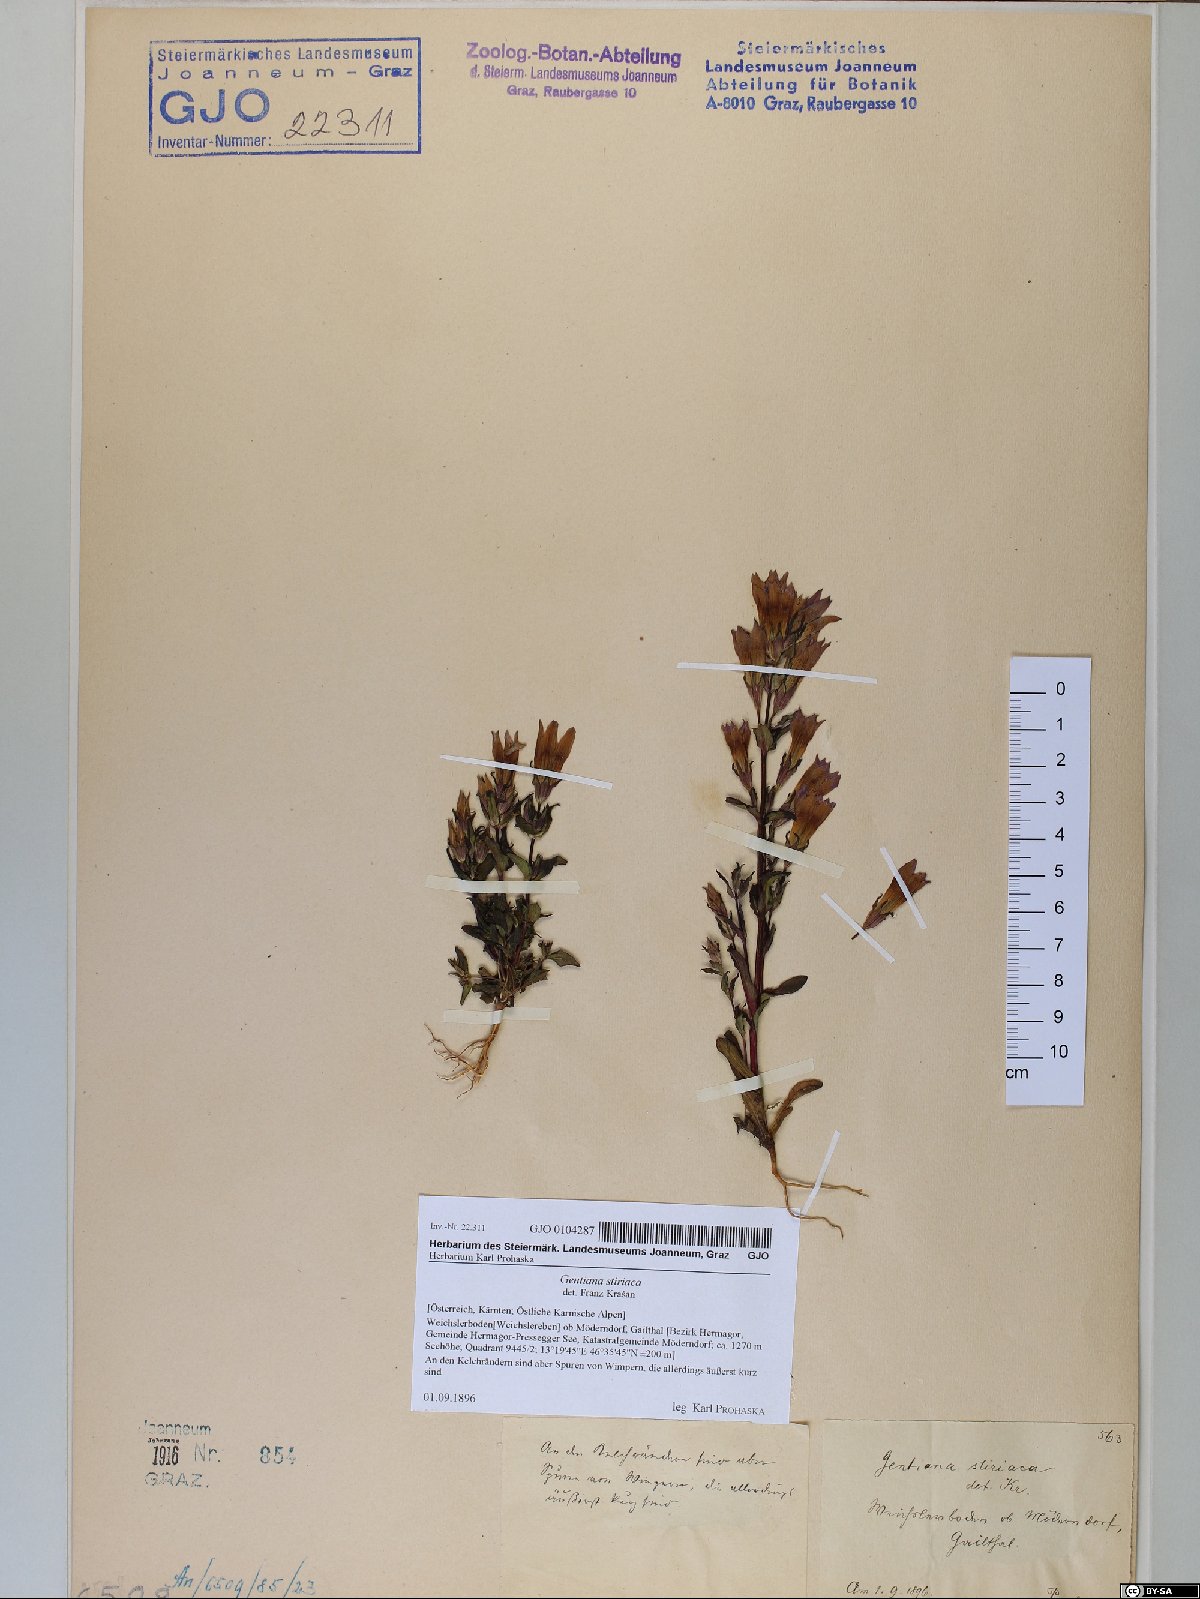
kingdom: Plantae
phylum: Tracheophyta
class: Magnoliopsida
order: Gentianales
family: Gentianaceae
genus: Gentianella
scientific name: Gentianella rhaetica
